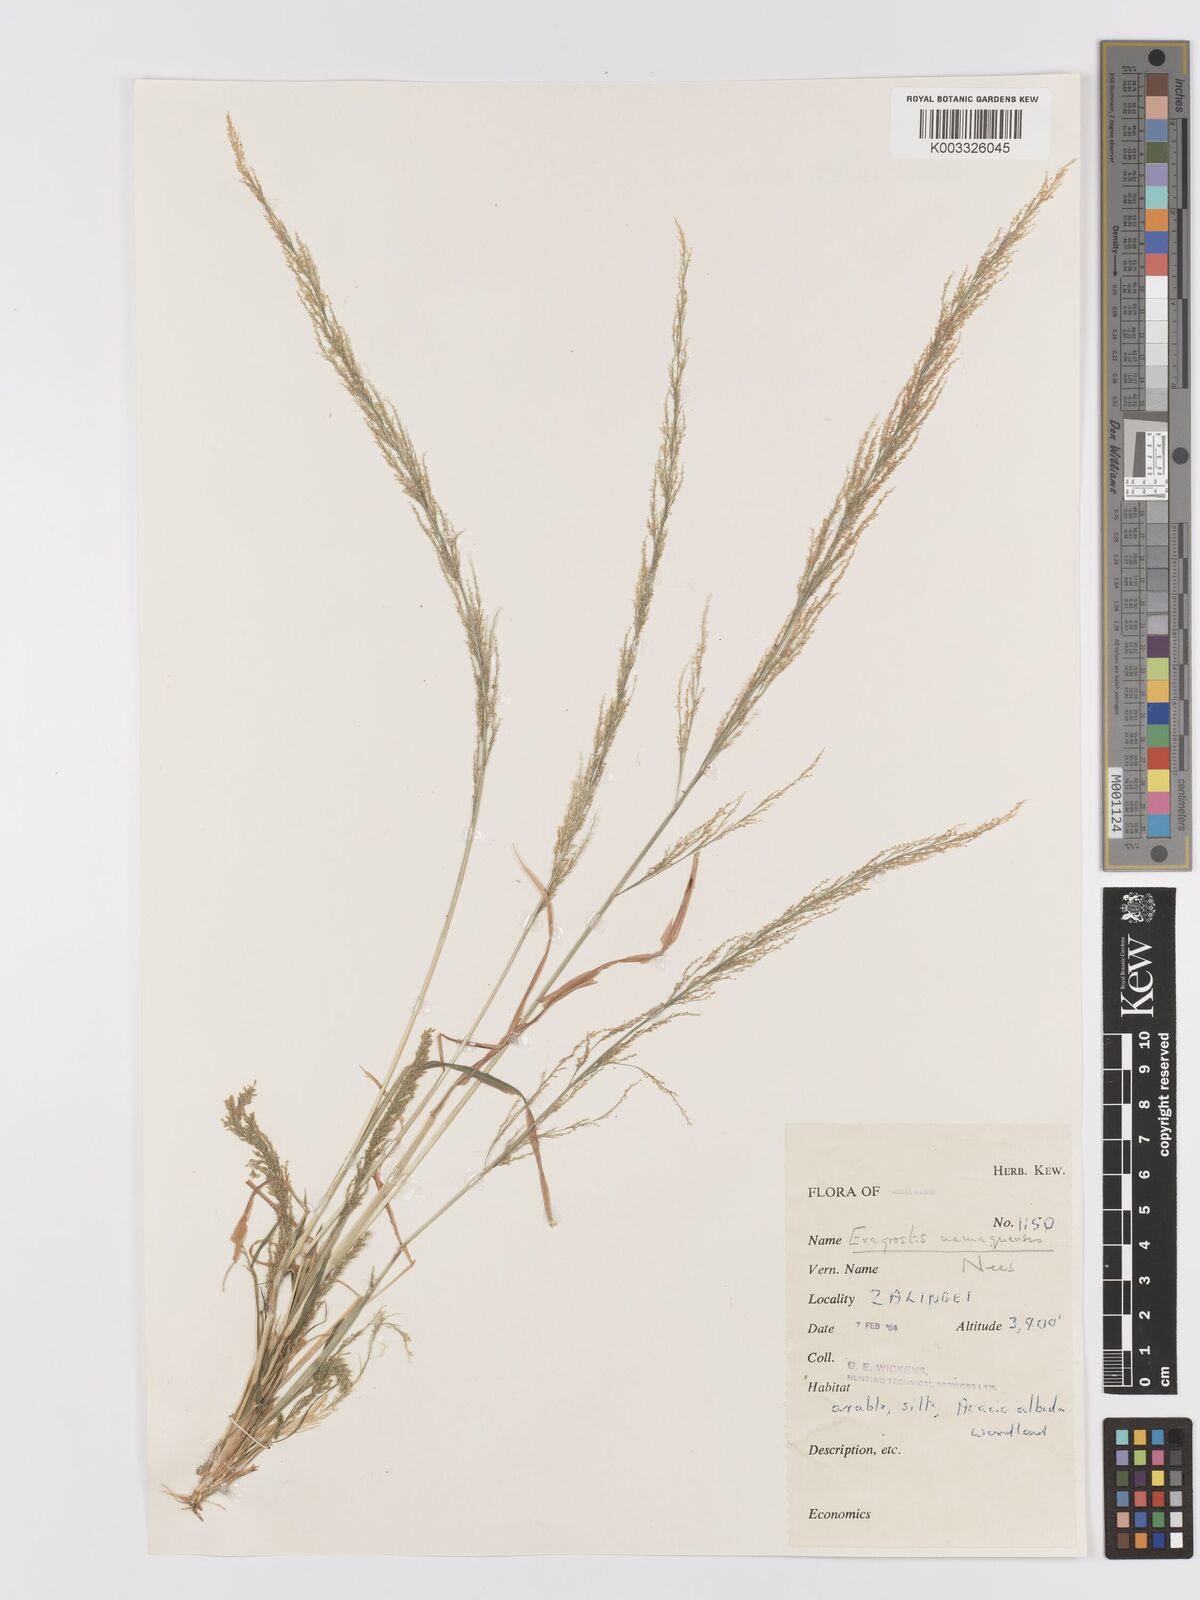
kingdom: Plantae
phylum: Tracheophyta
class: Liliopsida
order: Poales
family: Poaceae
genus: Eragrostis
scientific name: Eragrostis japonica
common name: Pond lovegrass
